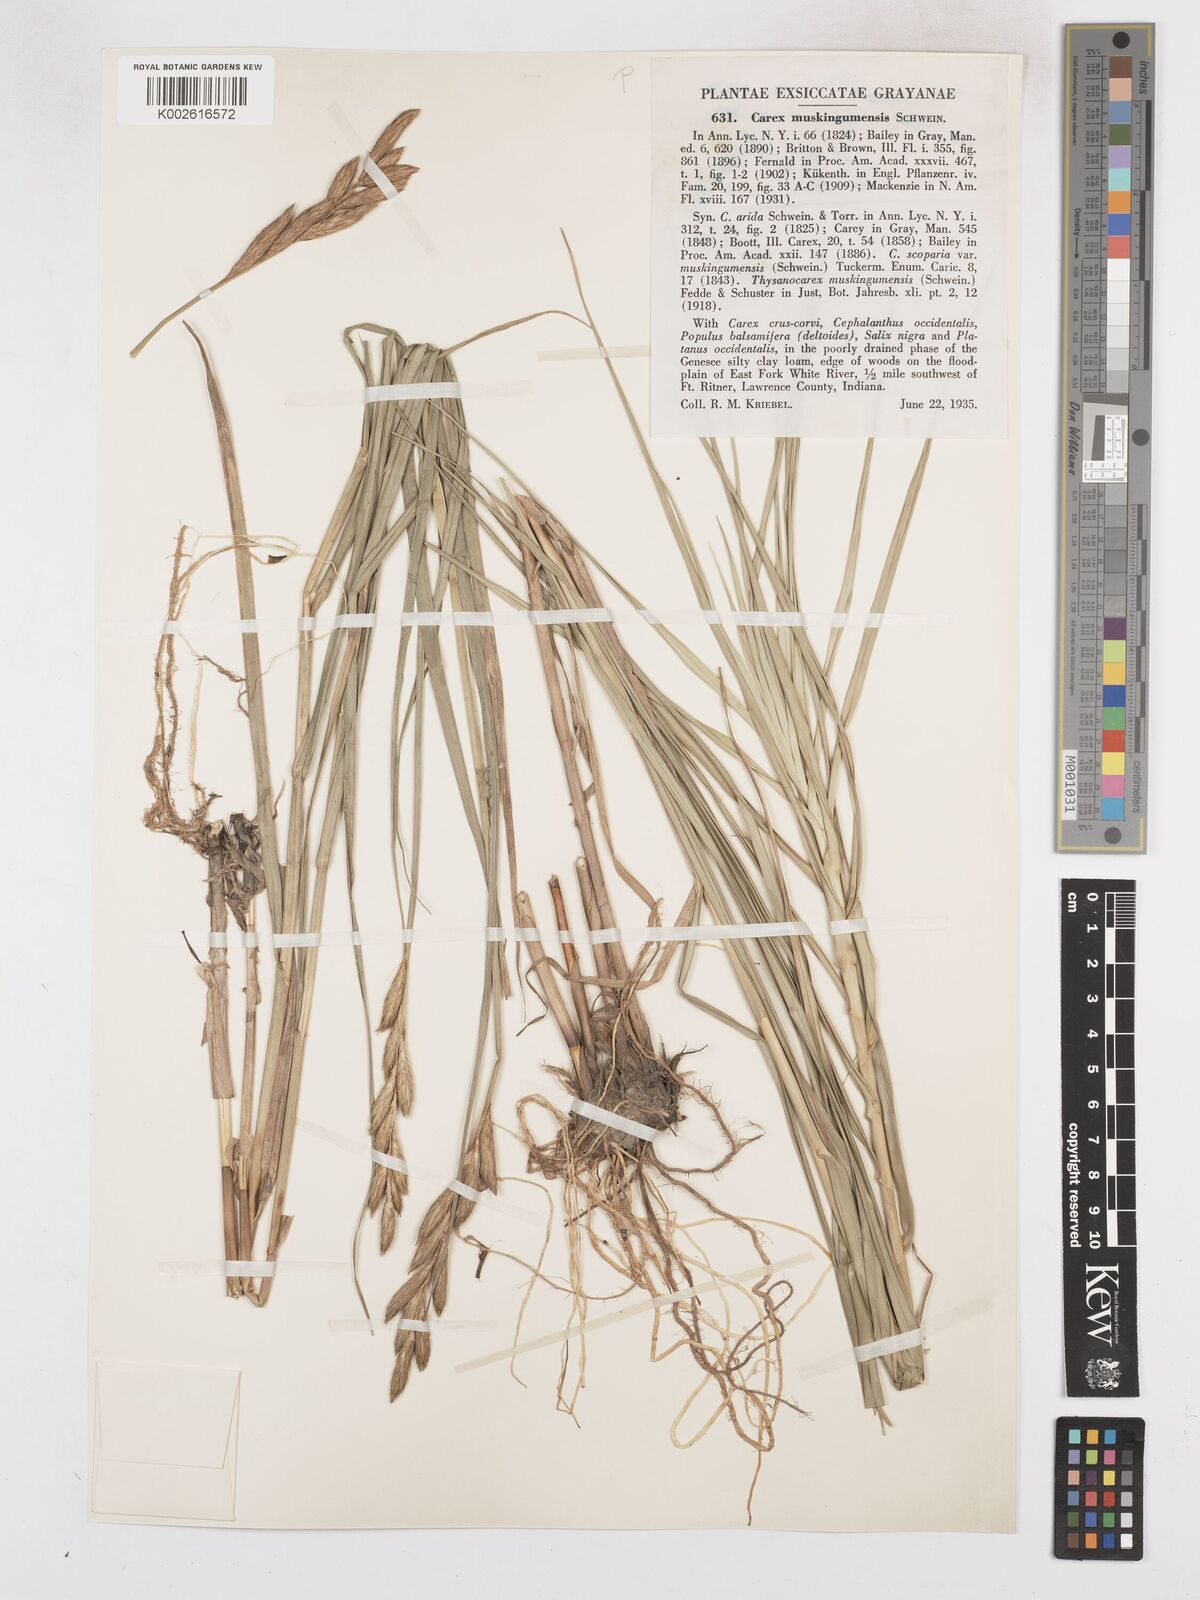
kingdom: Plantae
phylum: Tracheophyta
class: Liliopsida
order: Poales
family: Cyperaceae
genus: Carex
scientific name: Carex muskingumensis
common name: Muskingum sedge
